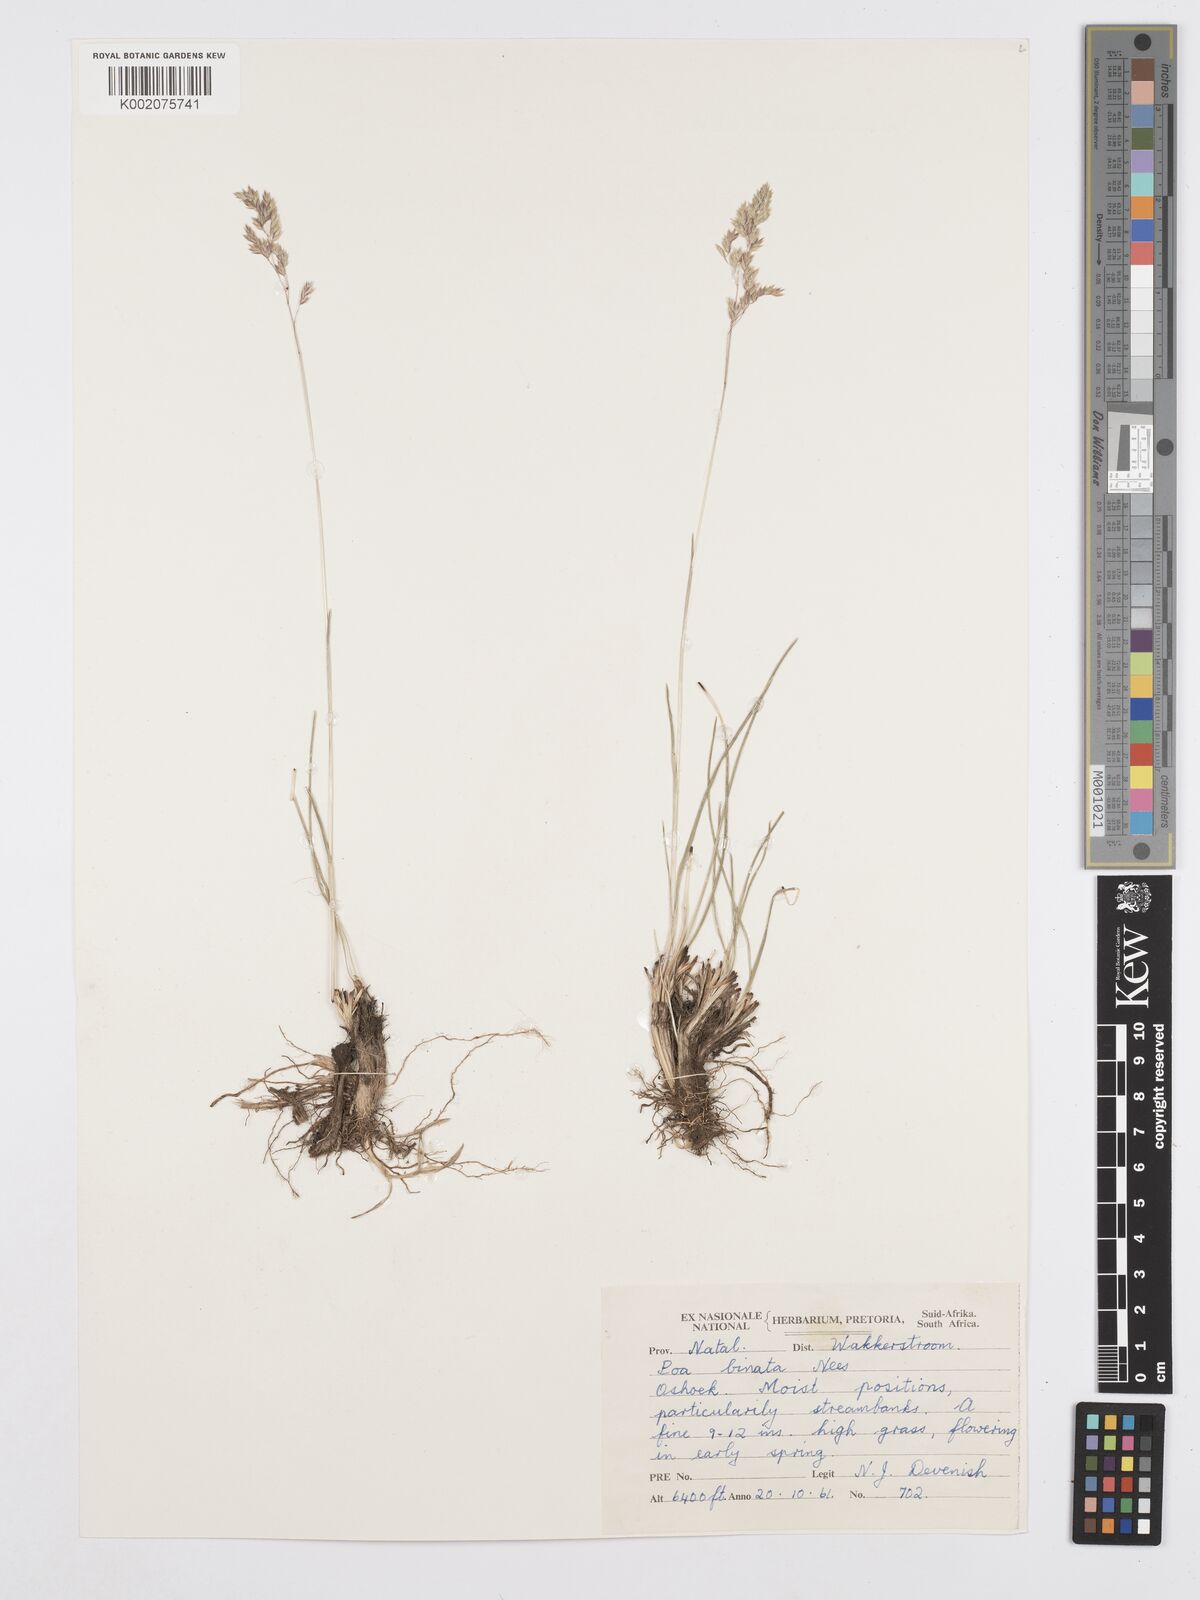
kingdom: Plantae
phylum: Tracheophyta
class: Liliopsida
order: Poales
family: Poaceae
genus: Poa
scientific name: Poa binata
